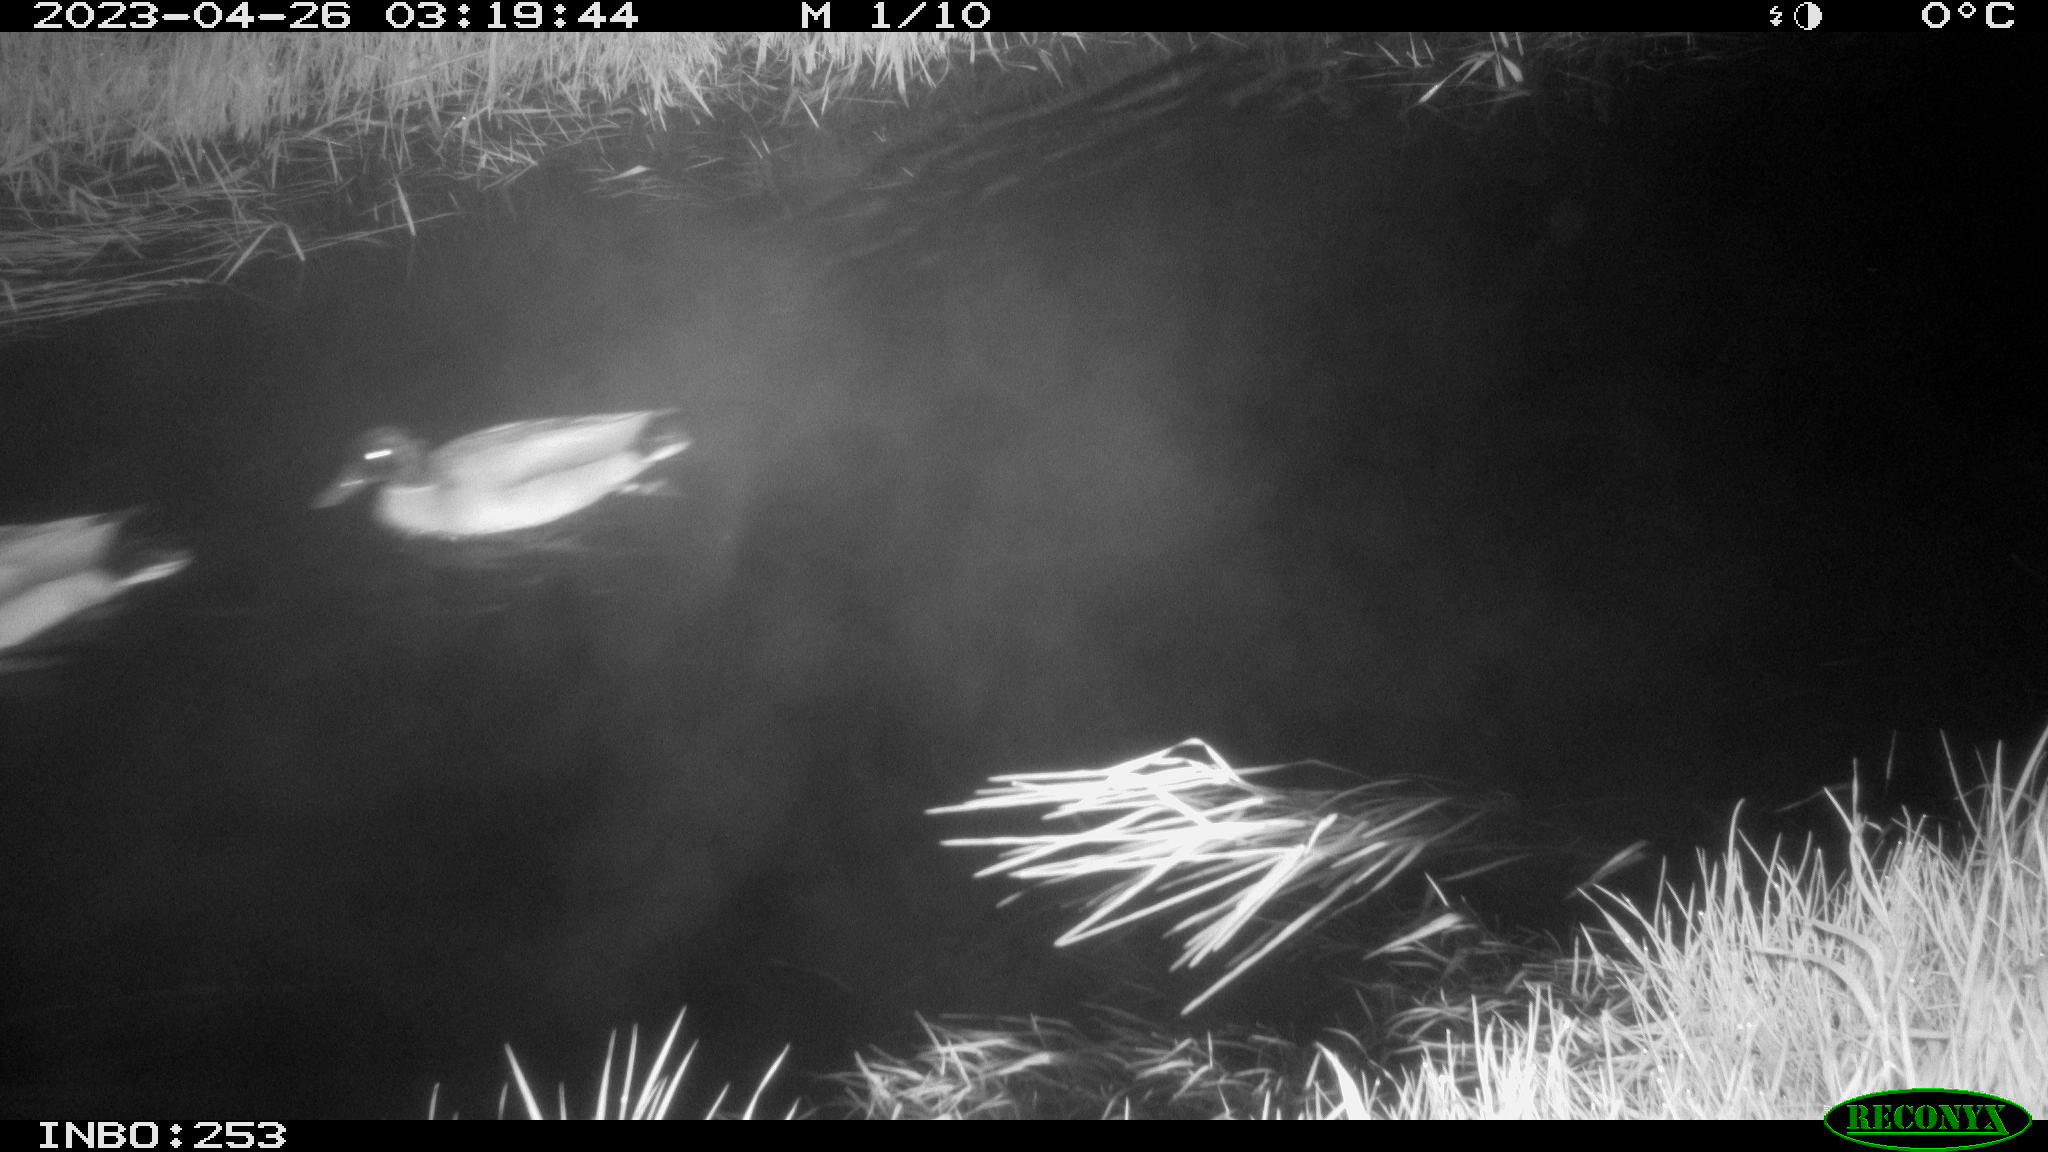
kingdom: Animalia
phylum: Chordata
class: Aves
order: Anseriformes
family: Anatidae
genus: Anas
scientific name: Anas
